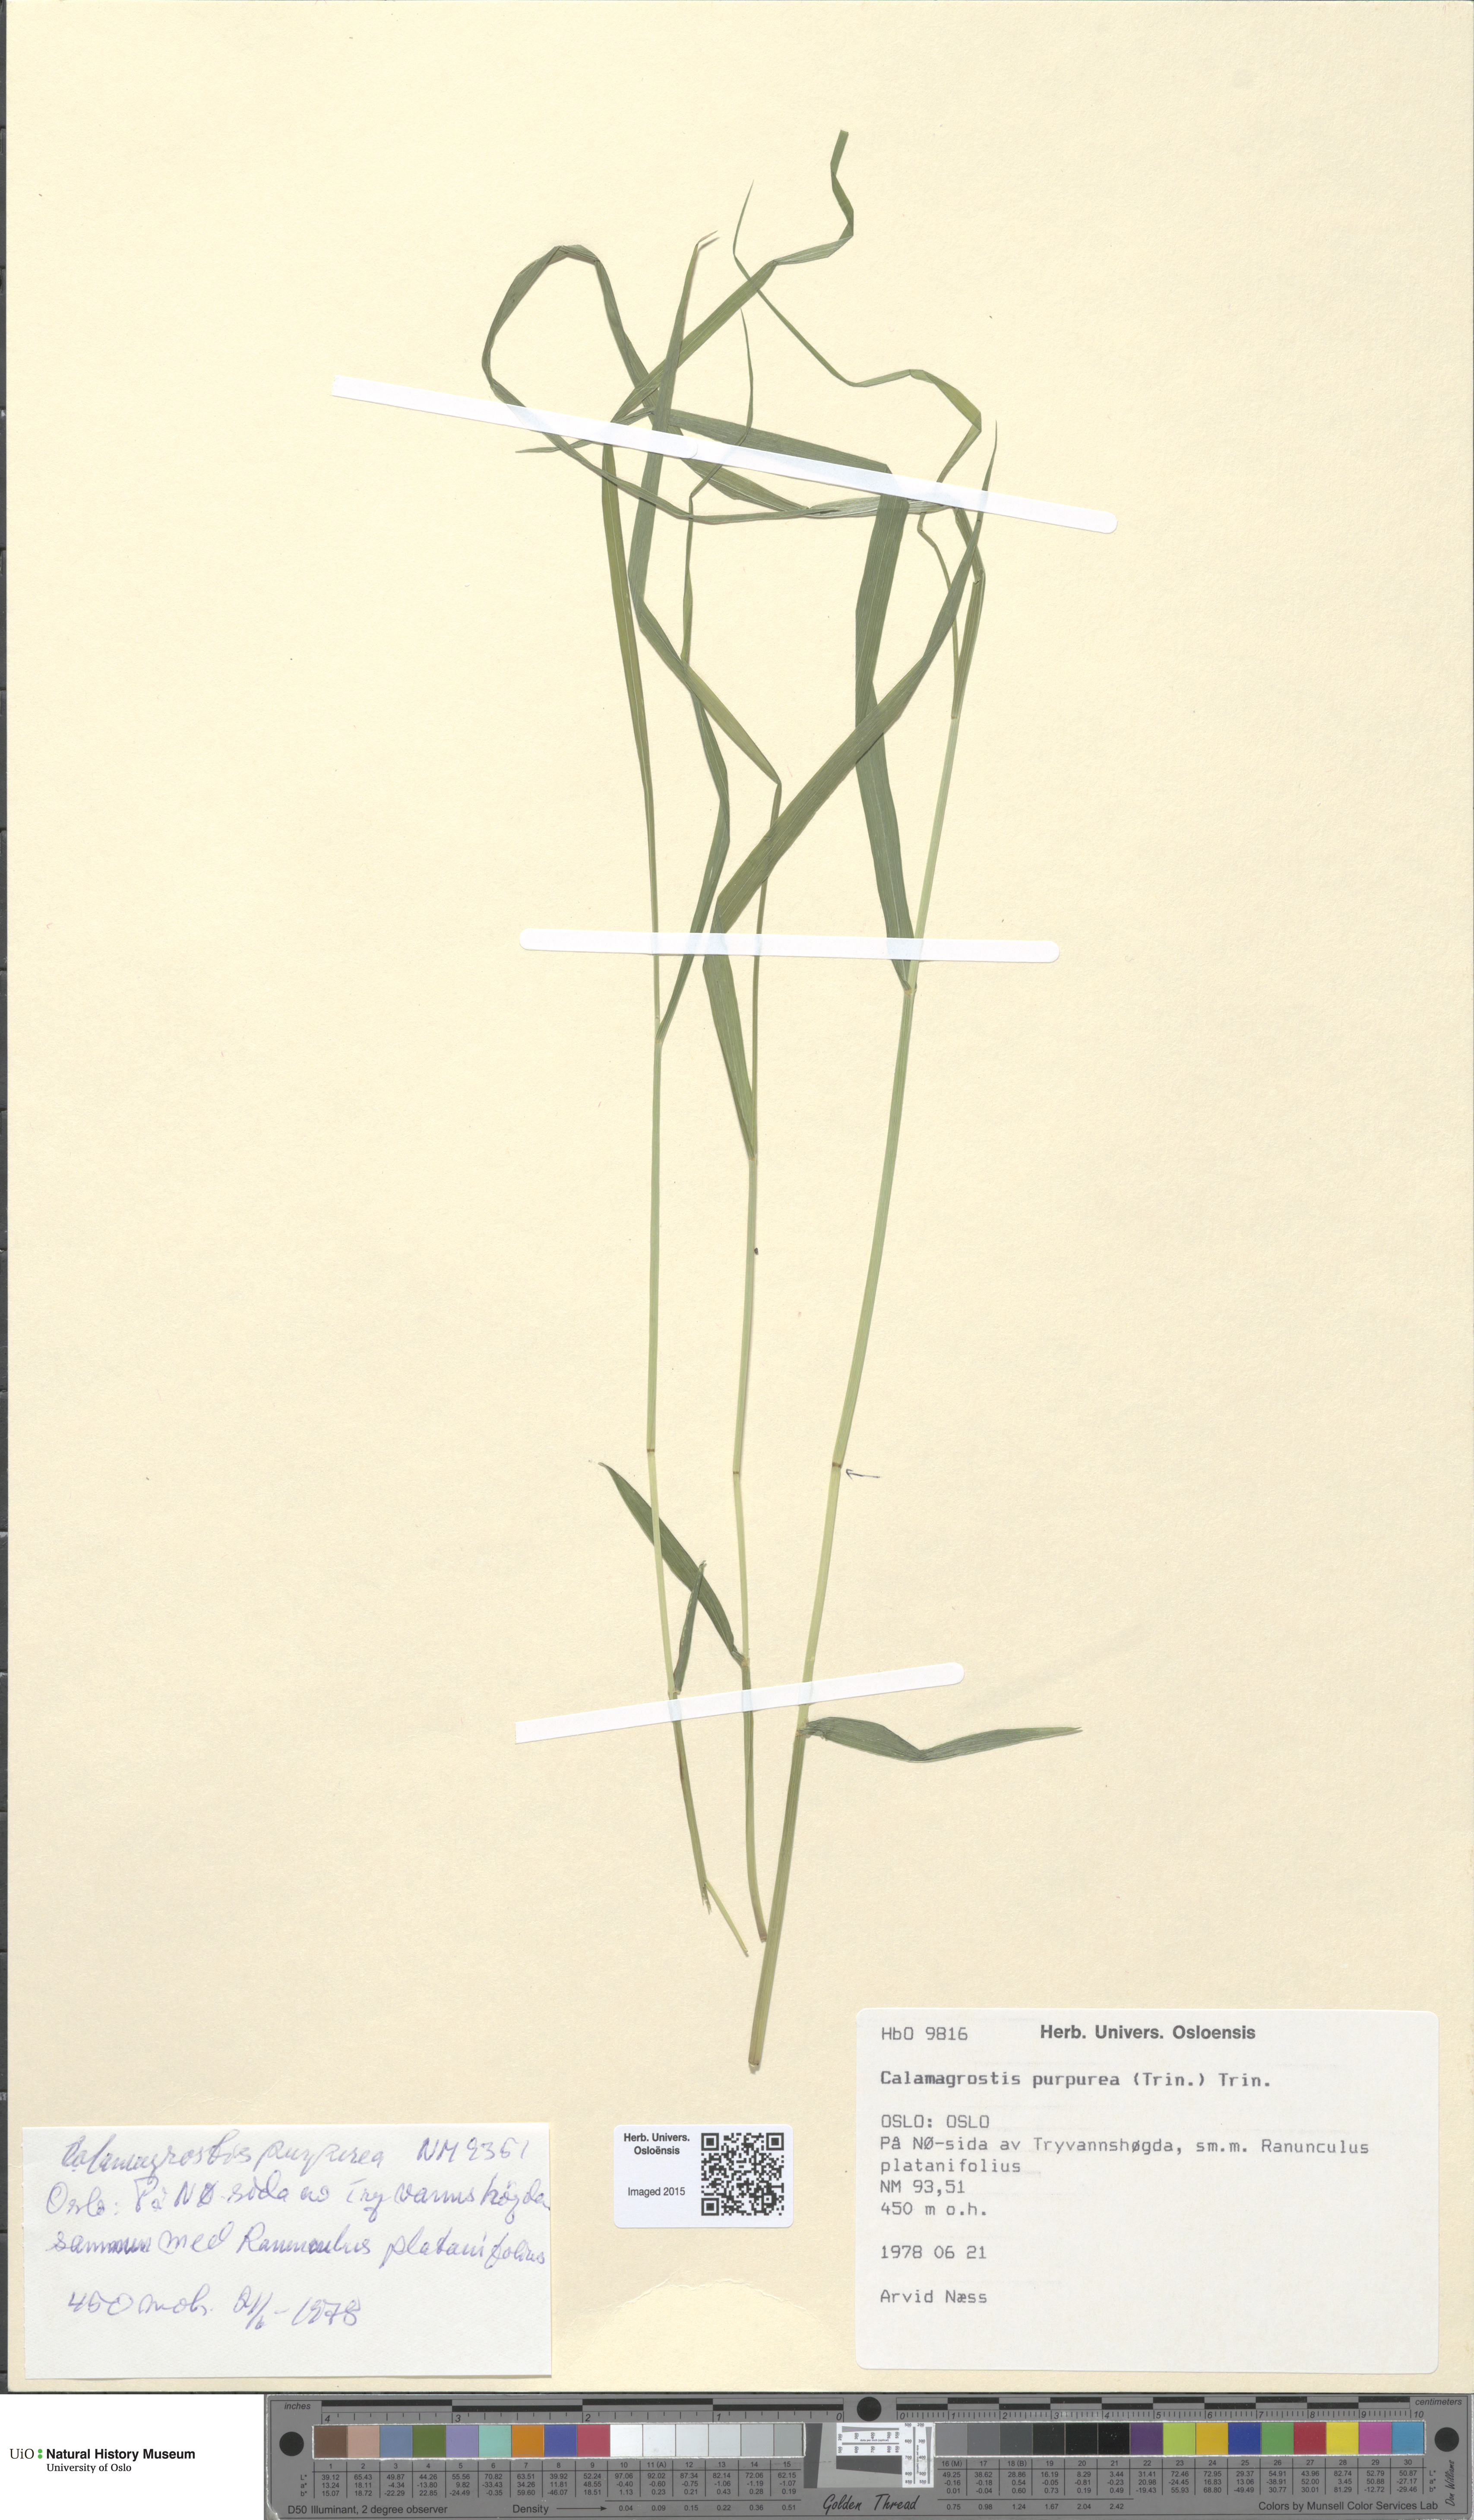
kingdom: Plantae
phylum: Tracheophyta
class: Liliopsida
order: Poales
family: Poaceae
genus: Calamagrostis
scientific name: Calamagrostis purpurea
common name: Scandinavian small-reed
